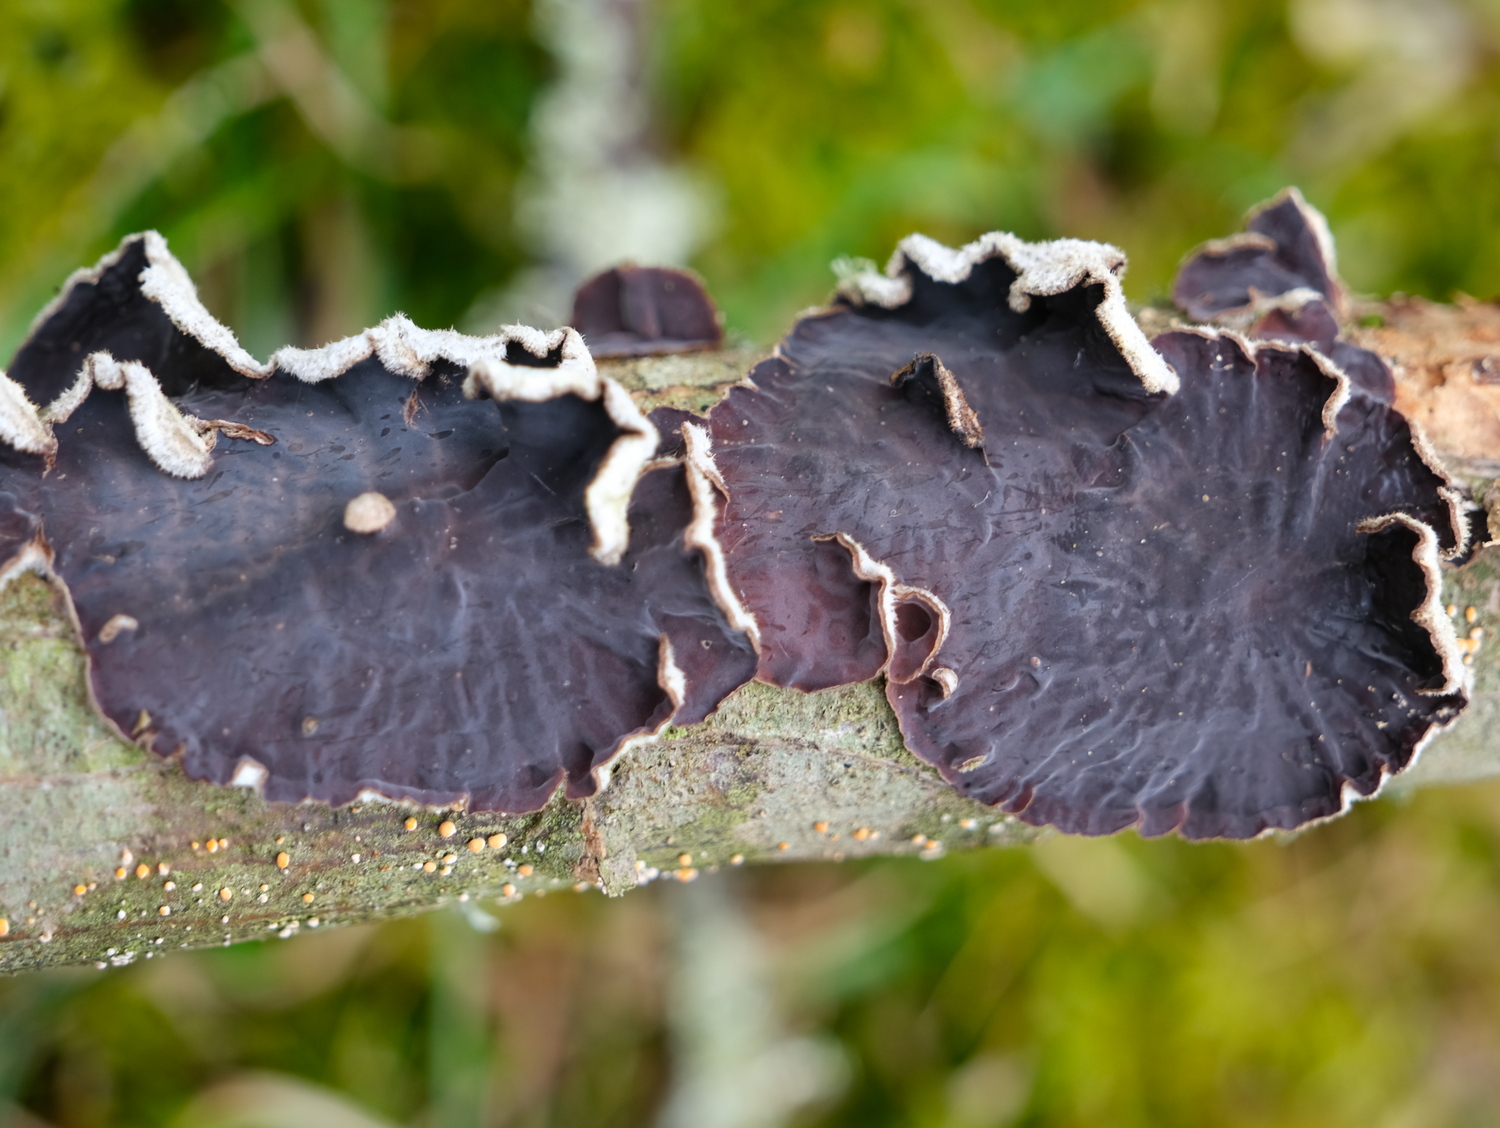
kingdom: Fungi
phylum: Basidiomycota
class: Agaricomycetes
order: Agaricales
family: Cyphellaceae
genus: Chondrostereum
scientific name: Chondrostereum purpureum
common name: purpurlædersvamp
